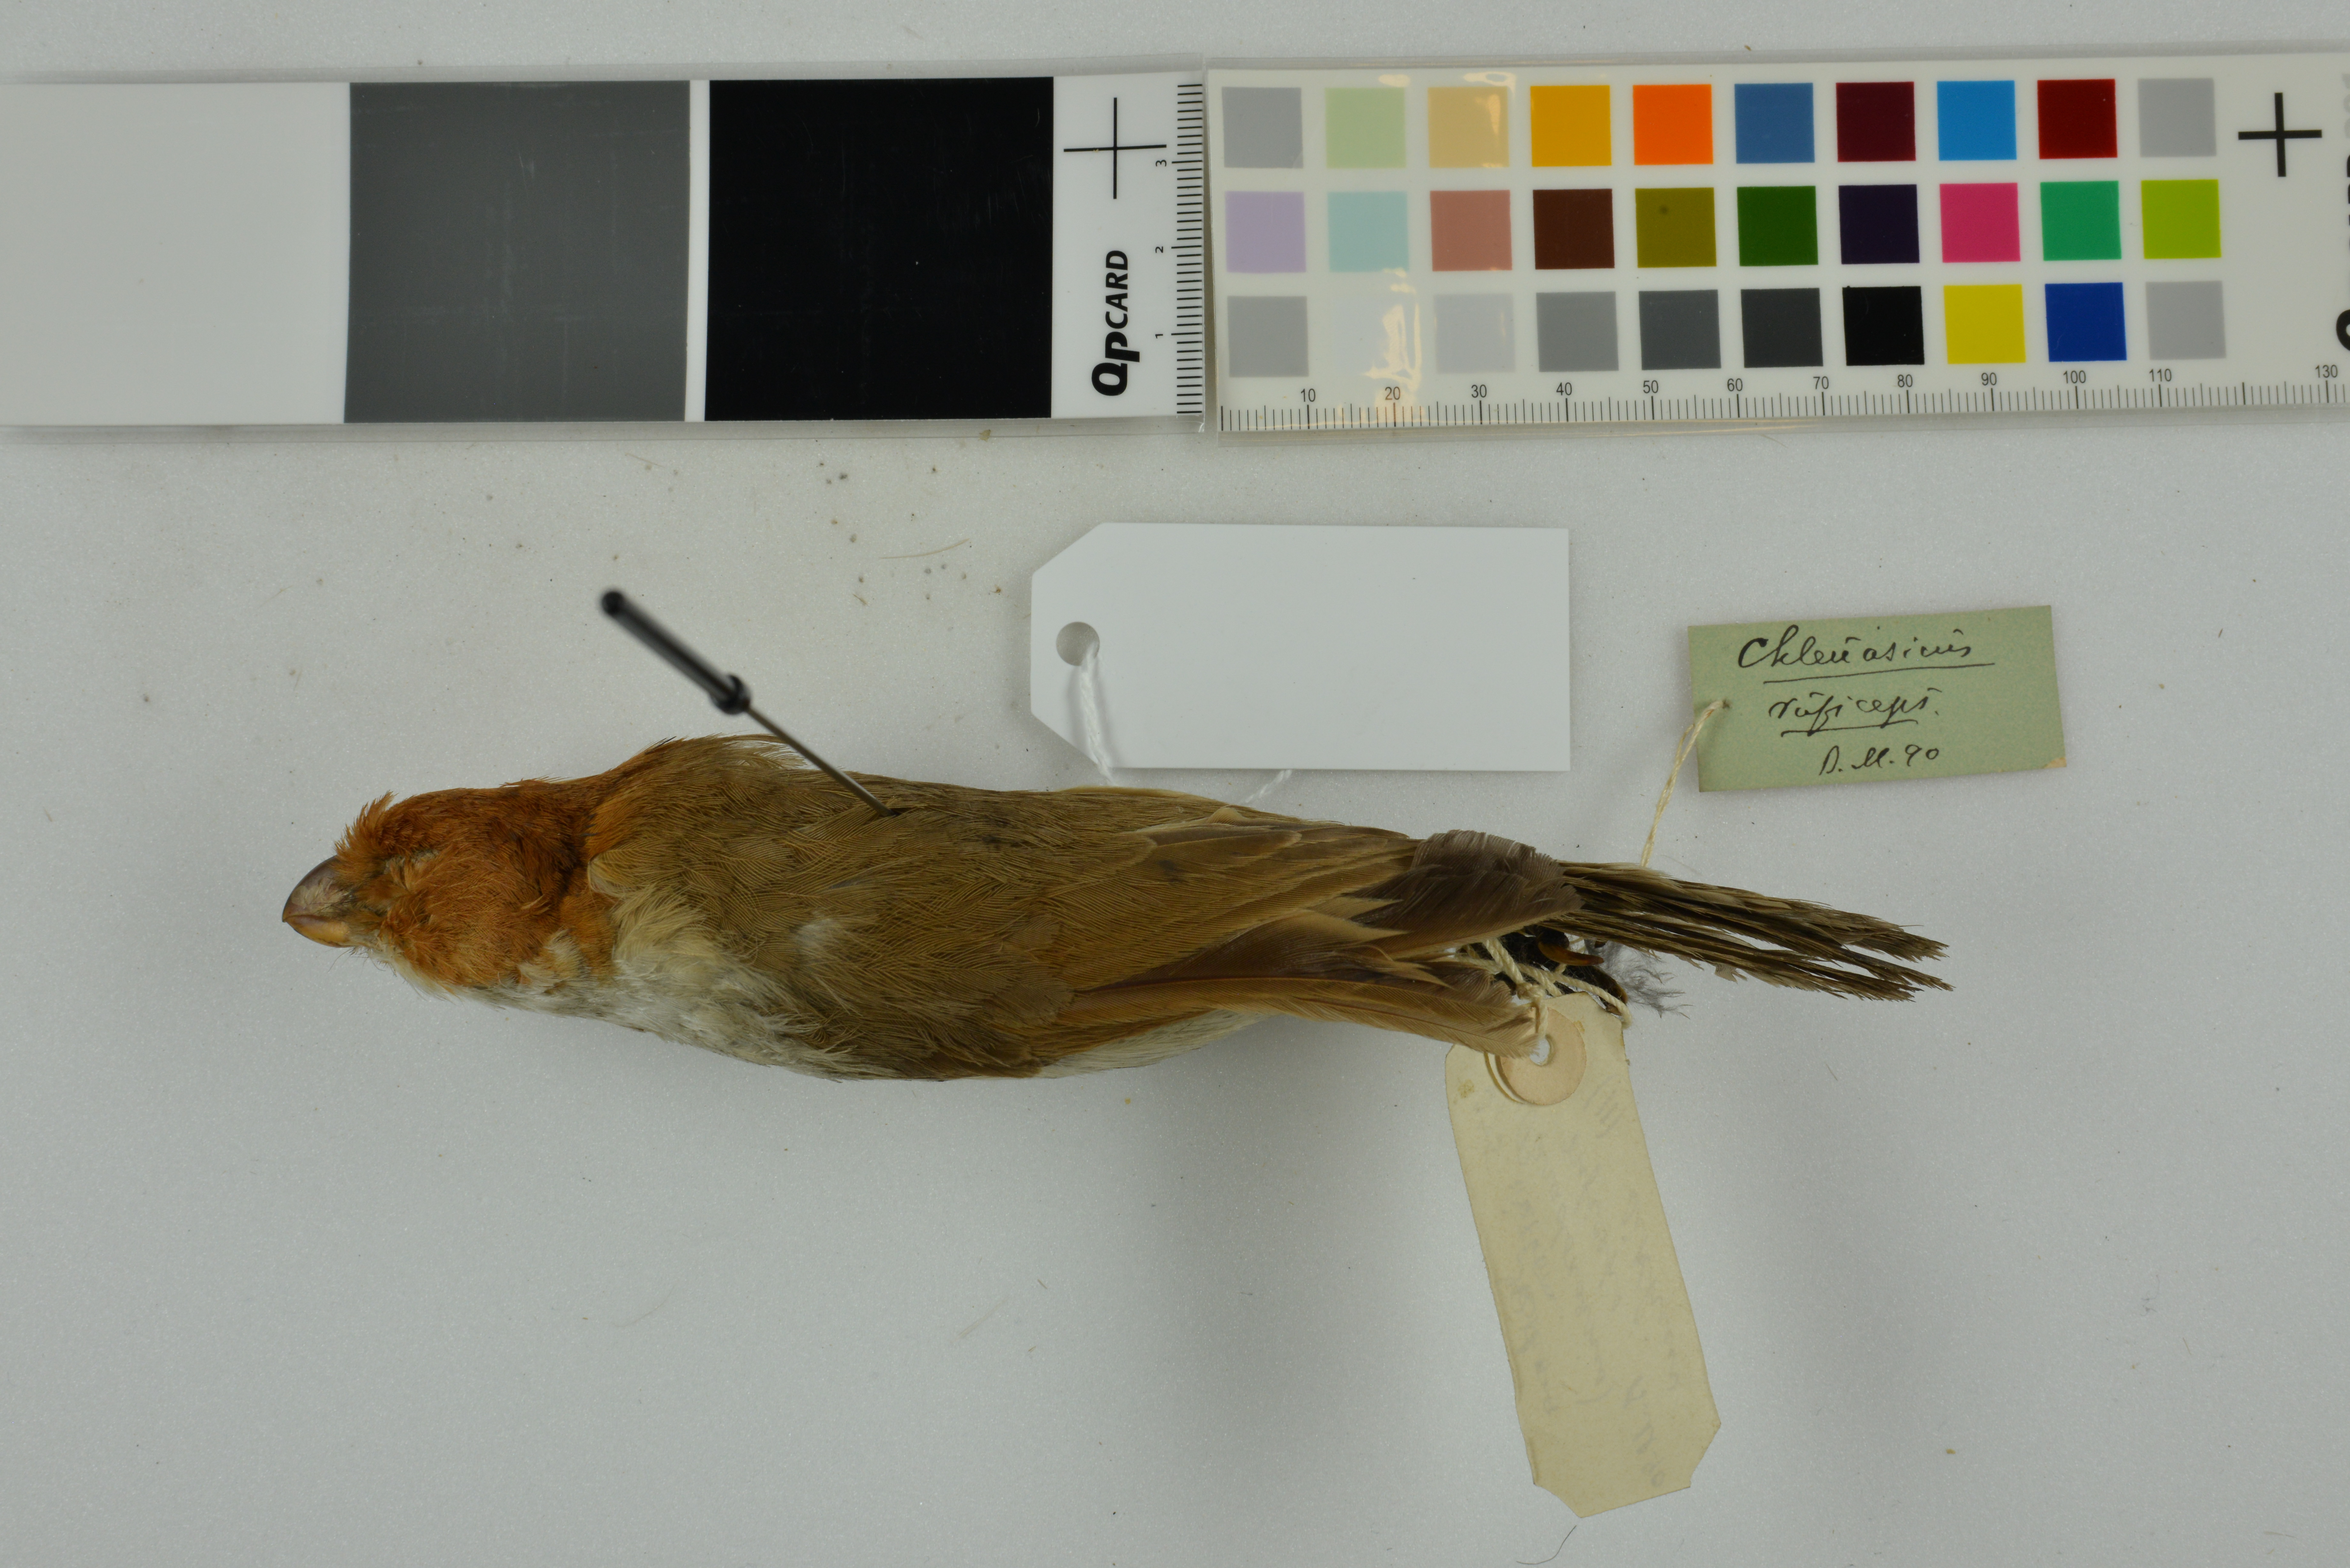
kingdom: Animalia
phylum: Chordata
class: Aves
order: Passeriformes
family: Sylviidae
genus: Psittiparus
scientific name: Psittiparus ruficeps
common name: White-breasted parrotbill
